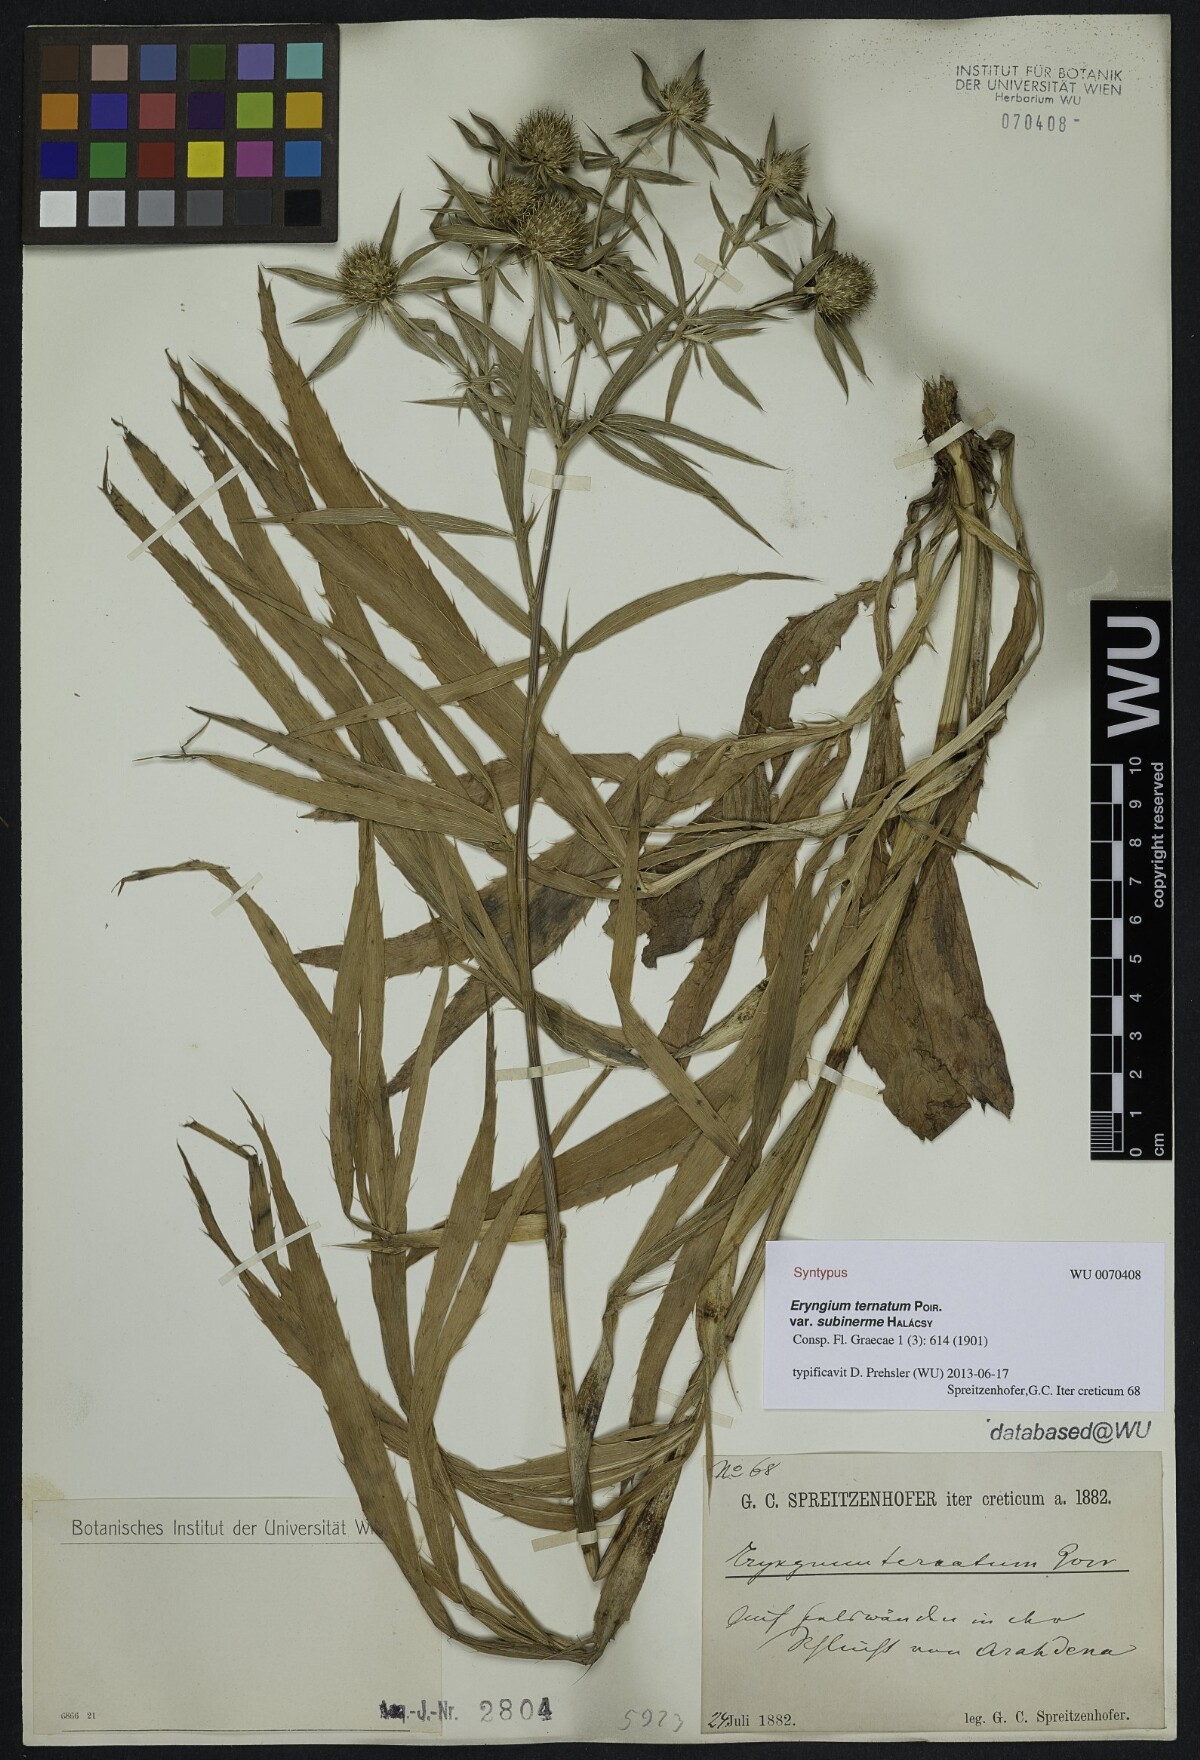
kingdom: Plantae
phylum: Tracheophyta
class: Magnoliopsida
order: Apiales
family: Apiaceae
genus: Eryngium
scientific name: Eryngium ternatum
